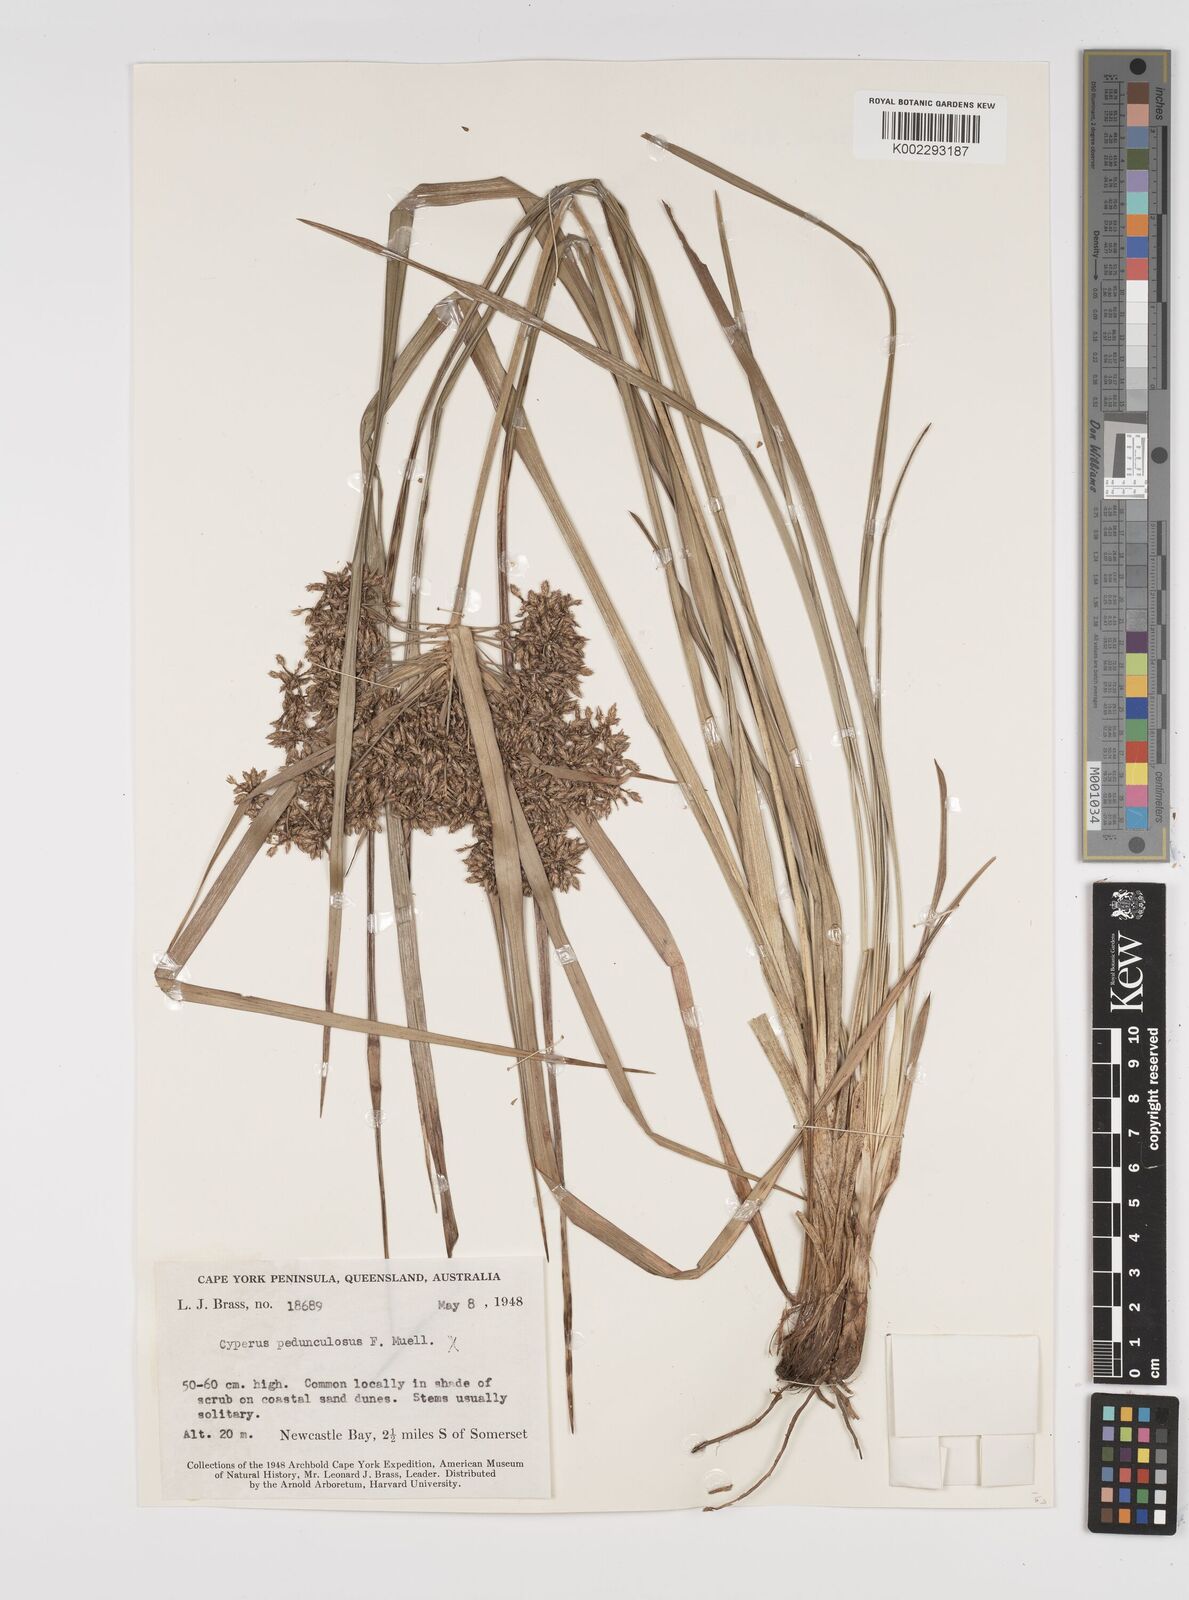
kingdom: Plantae
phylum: Tracheophyta
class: Liliopsida
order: Poales
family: Cyperaceae
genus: Cyperus
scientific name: Cyperus pedunculosus
